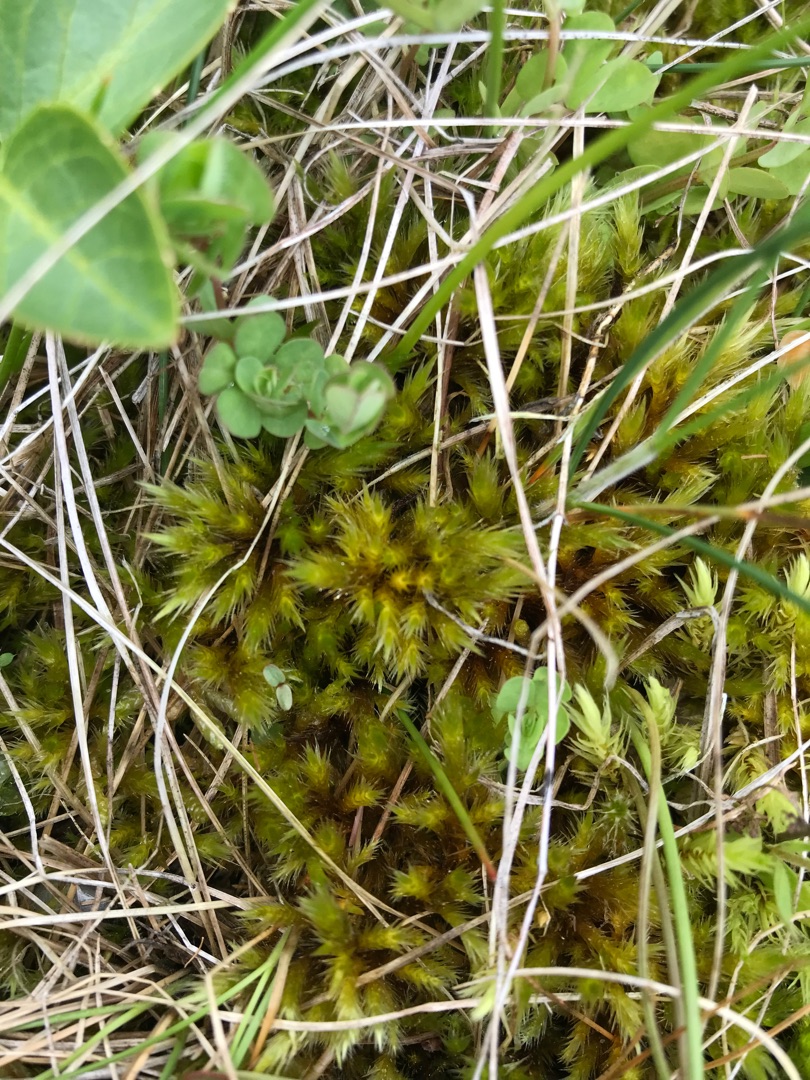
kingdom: Plantae
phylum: Bryophyta
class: Bryopsida
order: Hypnales
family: Amblystegiaceae
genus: Tomentypnum
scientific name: Tomentypnum nitens
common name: Glinsende kærmos
